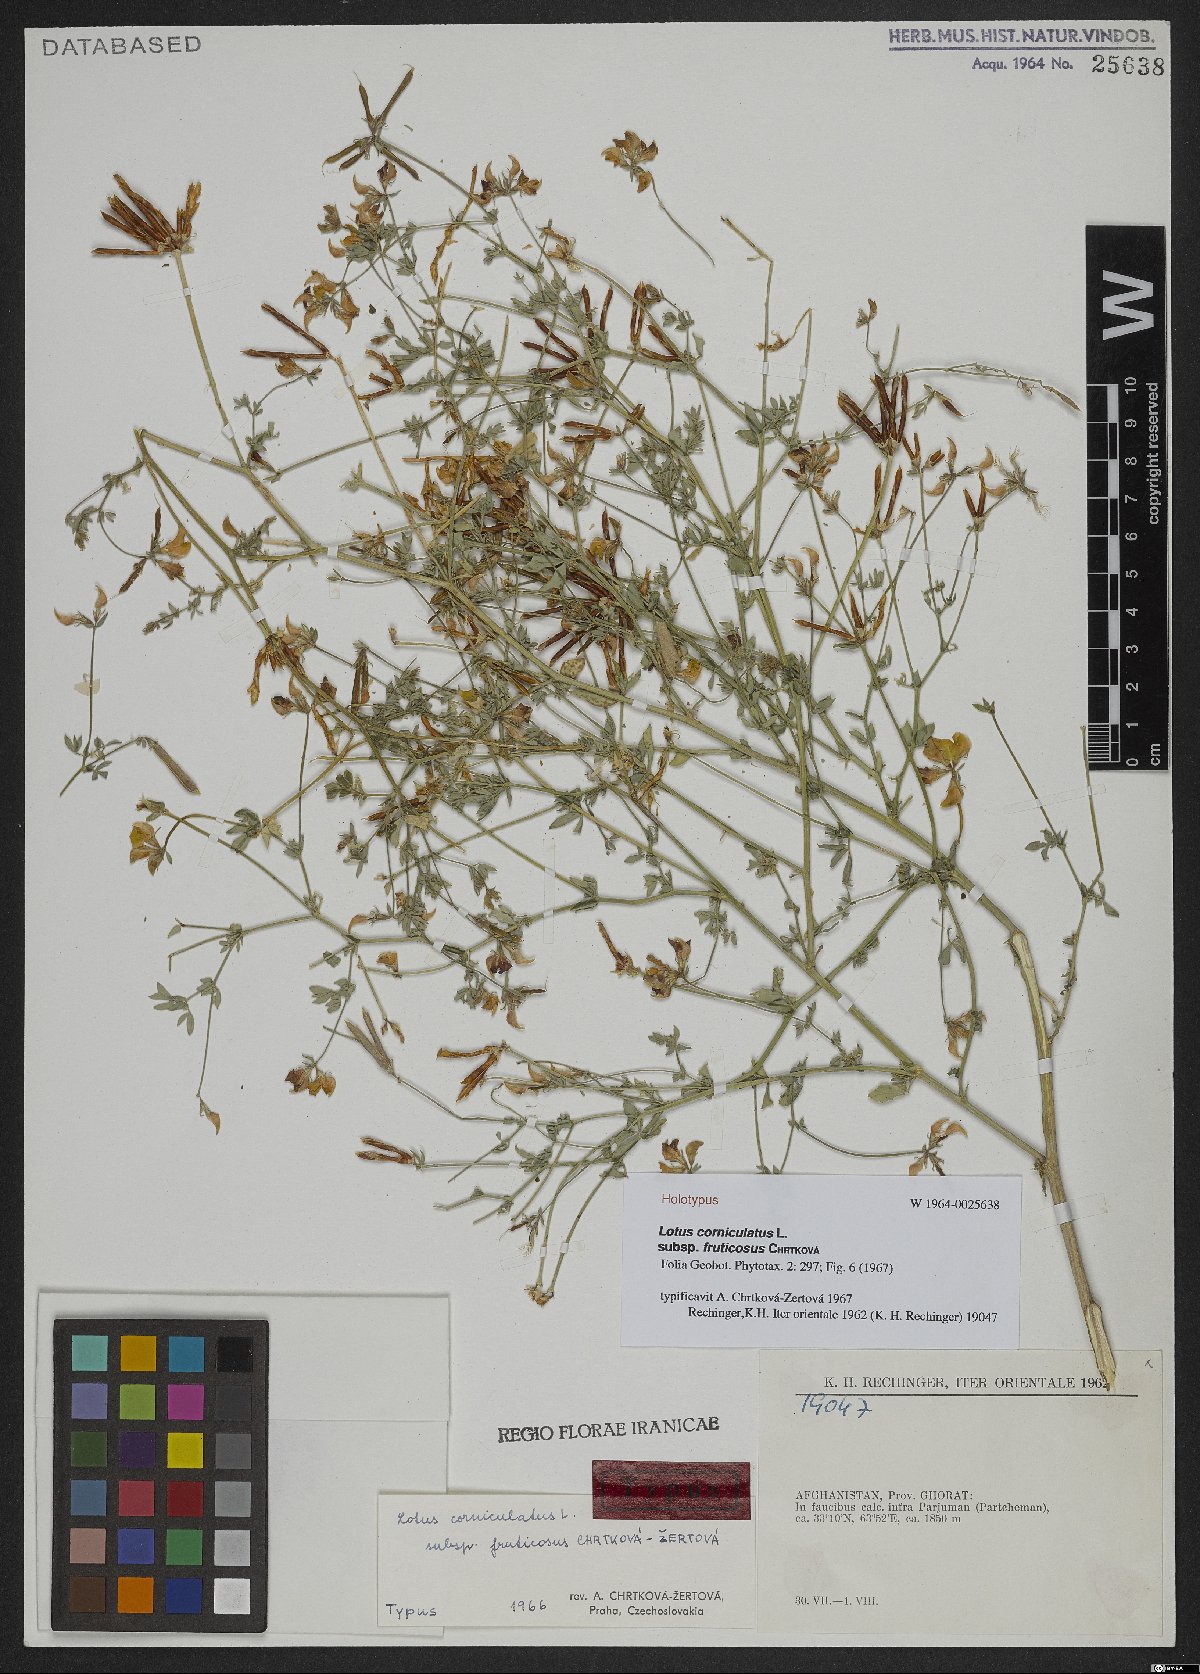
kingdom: Plantae
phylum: Tracheophyta
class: Magnoliopsida
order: Fabales
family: Fabaceae
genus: Lotus
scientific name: Lotus corniculatus
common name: Common bird's-foot-trefoil
